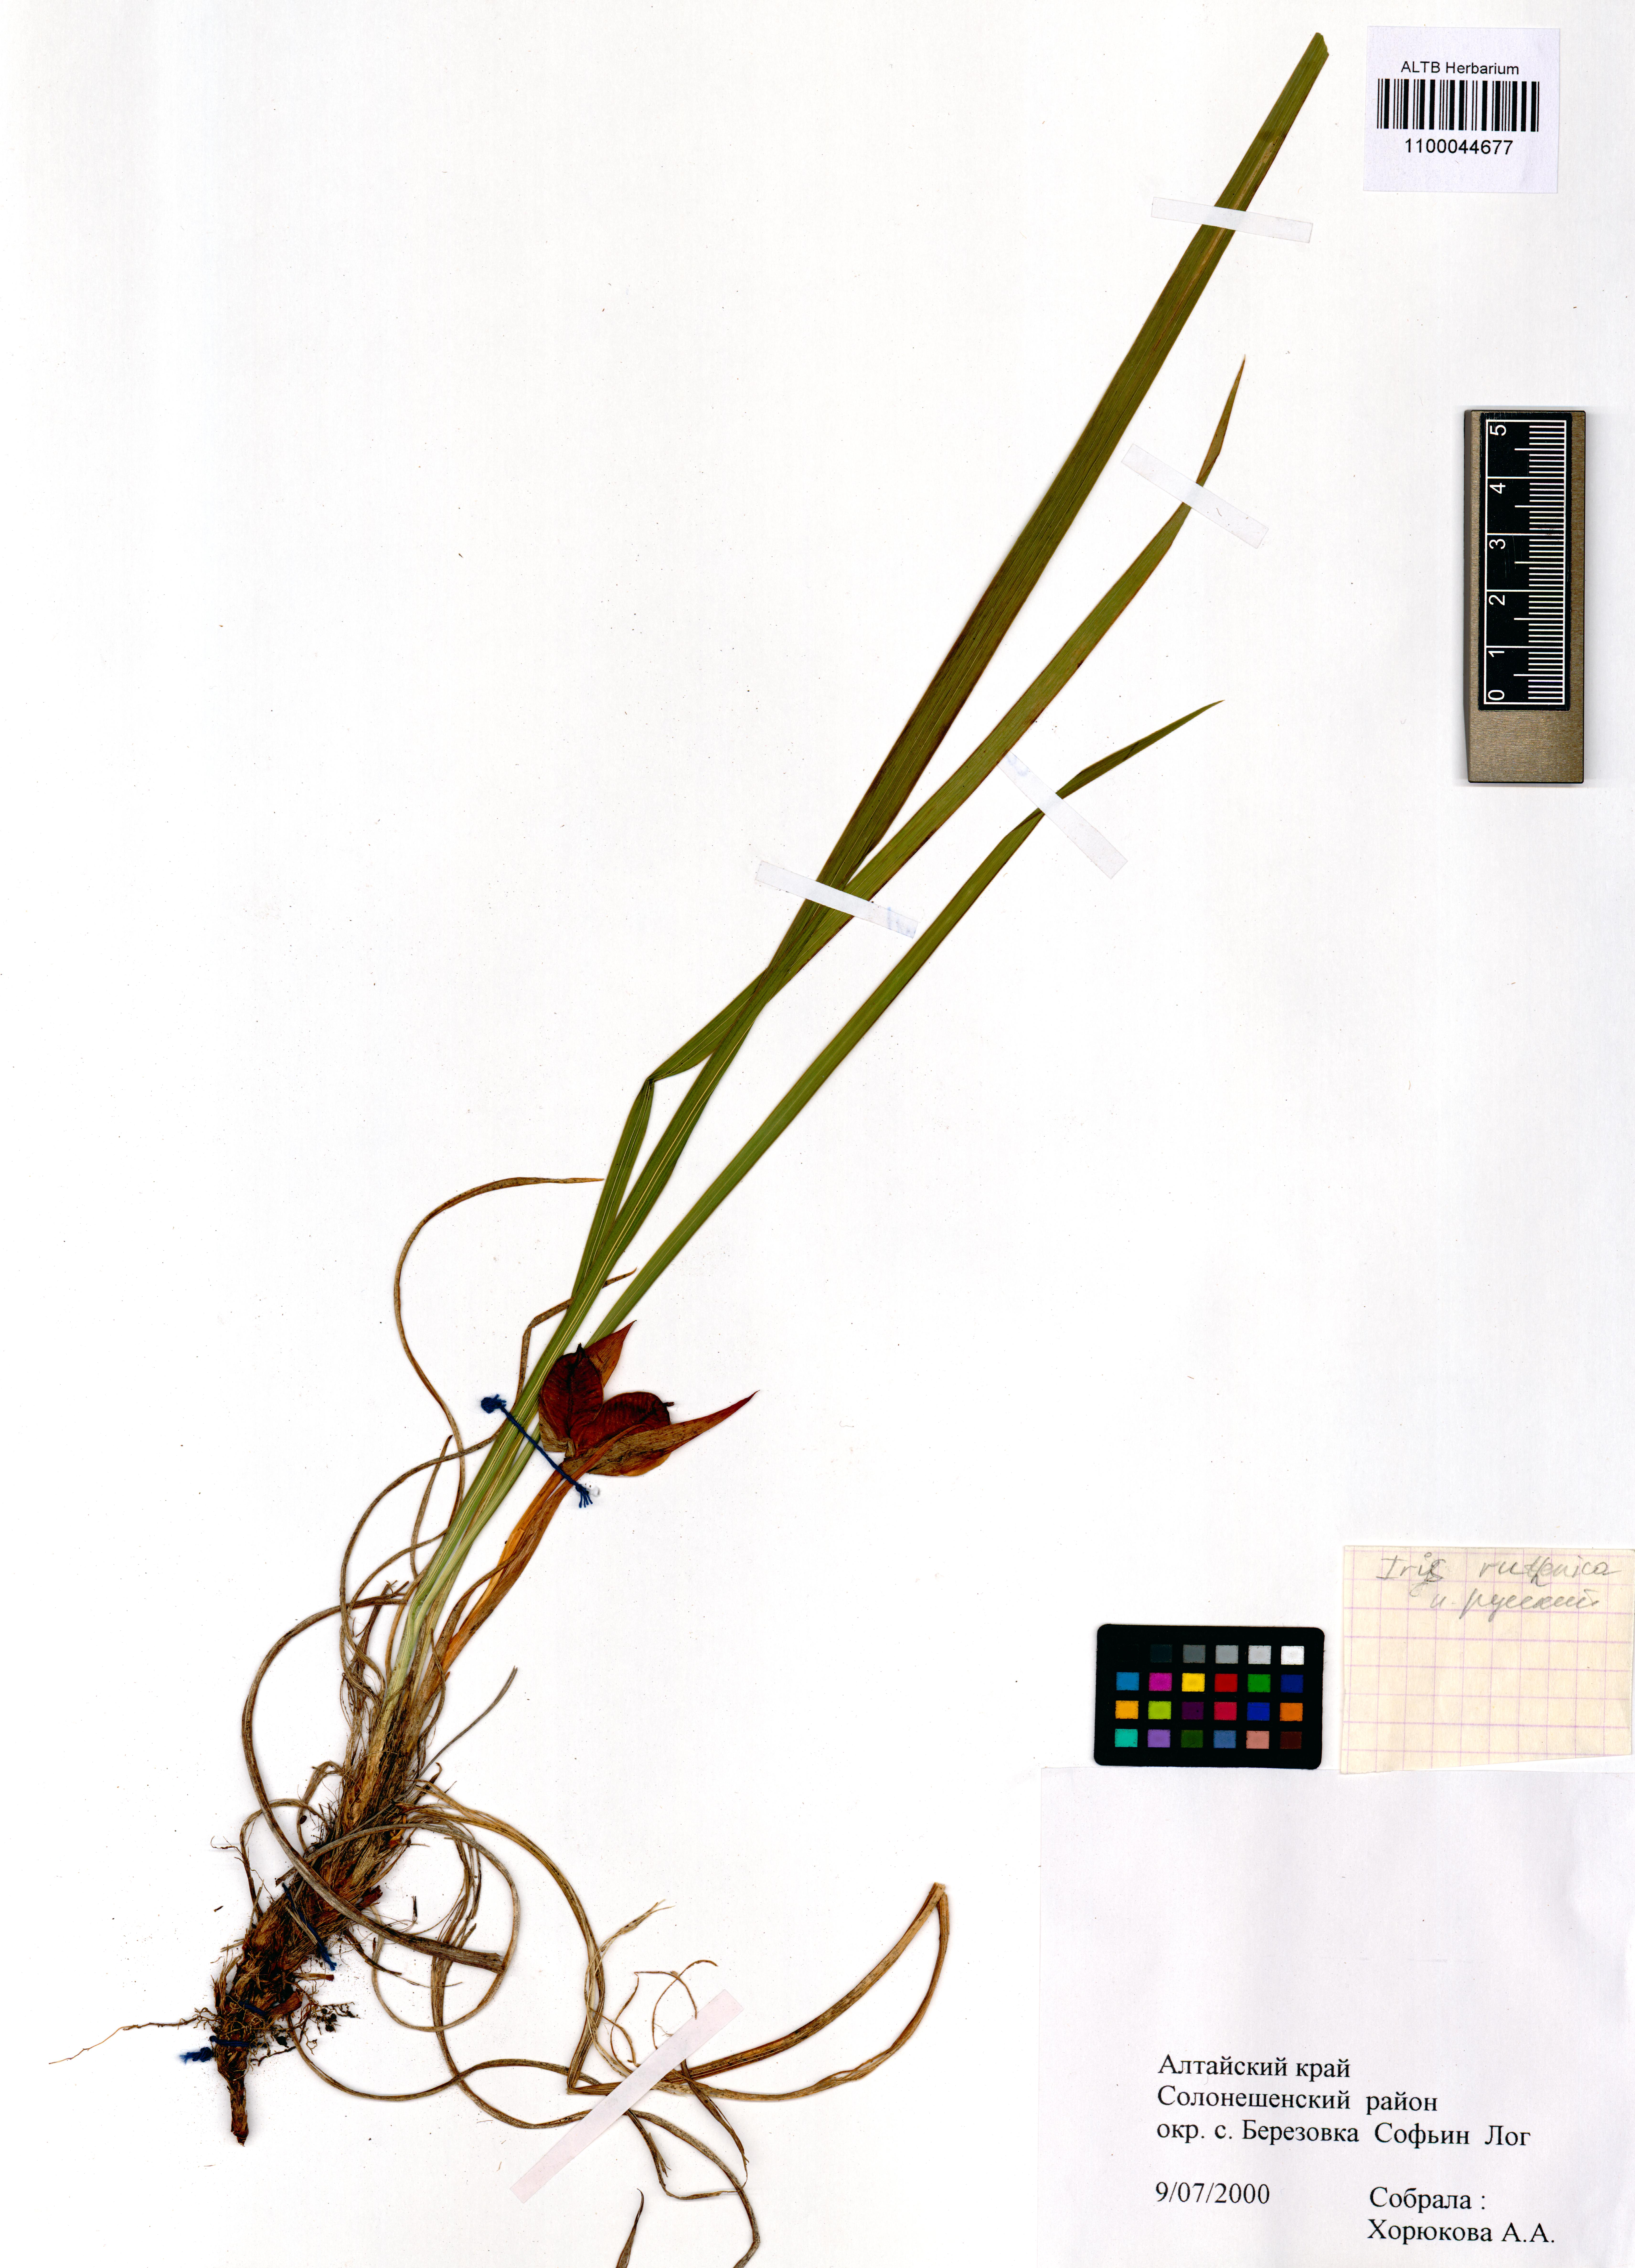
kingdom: Plantae
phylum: Tracheophyta
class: Liliopsida
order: Asparagales
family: Iridaceae
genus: Iris
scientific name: Iris ruthenica
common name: Purple-bract iris
